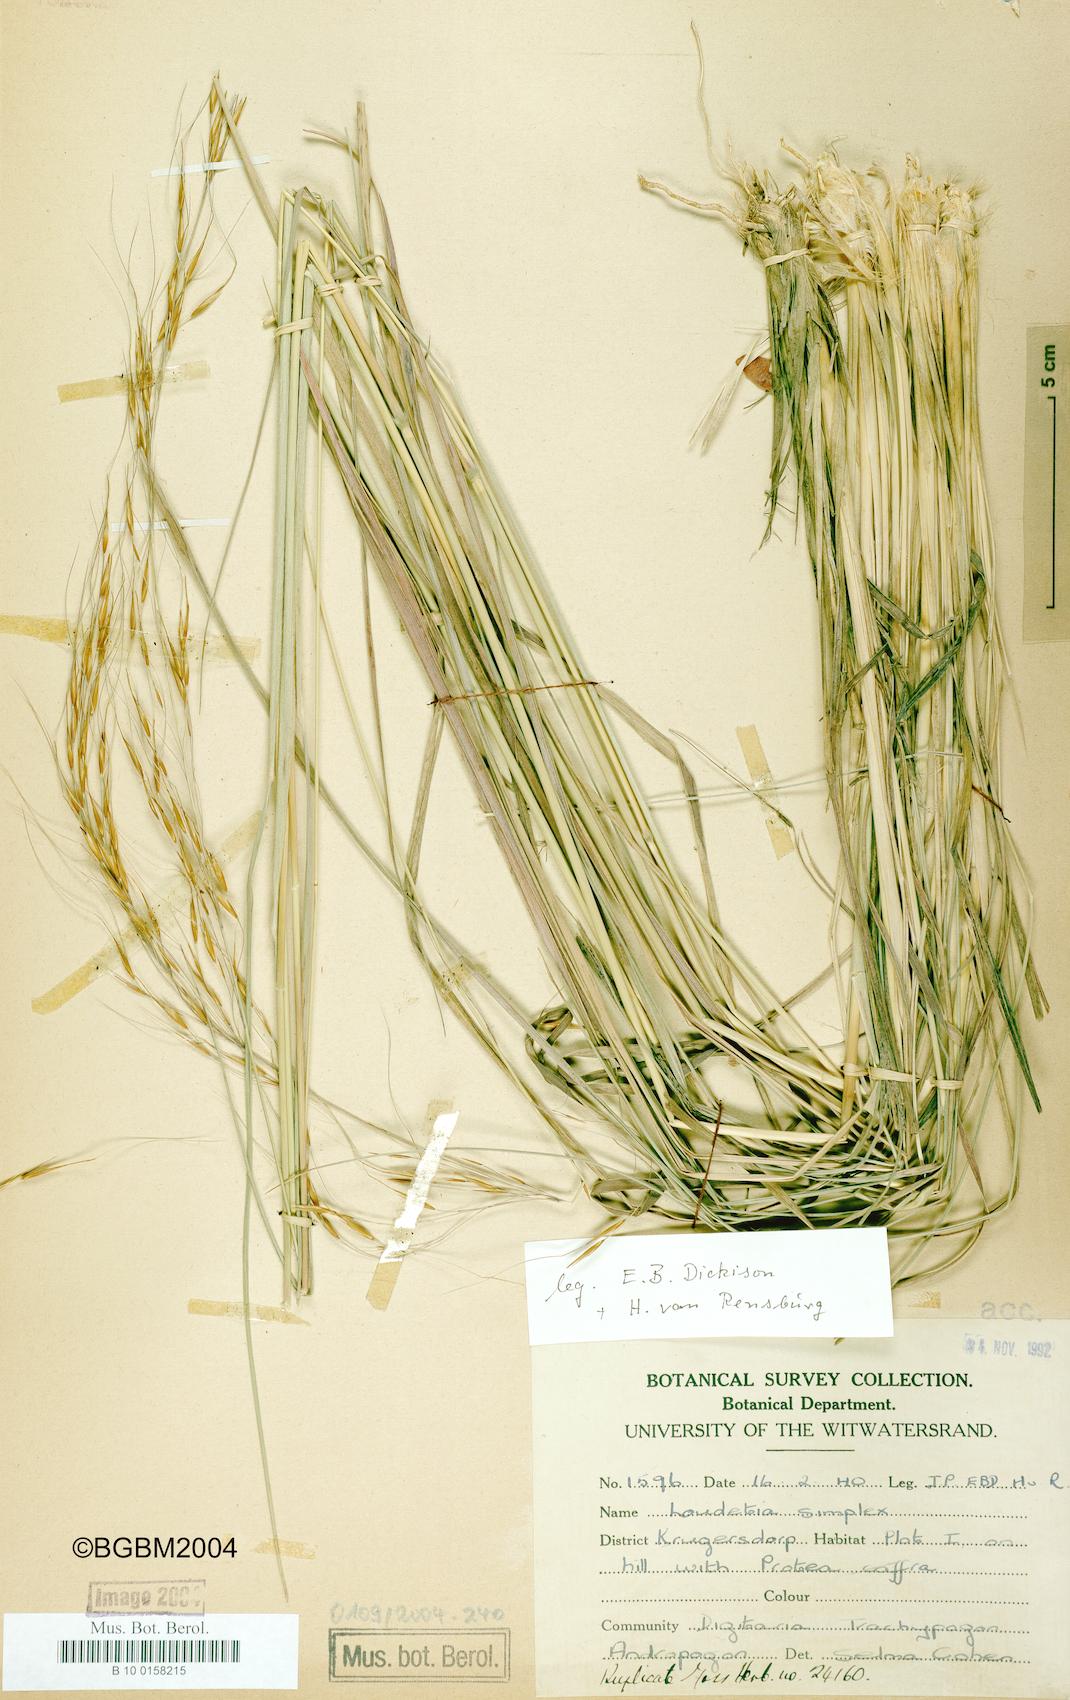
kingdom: Plantae
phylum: Tracheophyta
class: Liliopsida
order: Poales
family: Poaceae
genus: Loudetia
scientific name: Loudetia simplex
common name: Common russet grass
